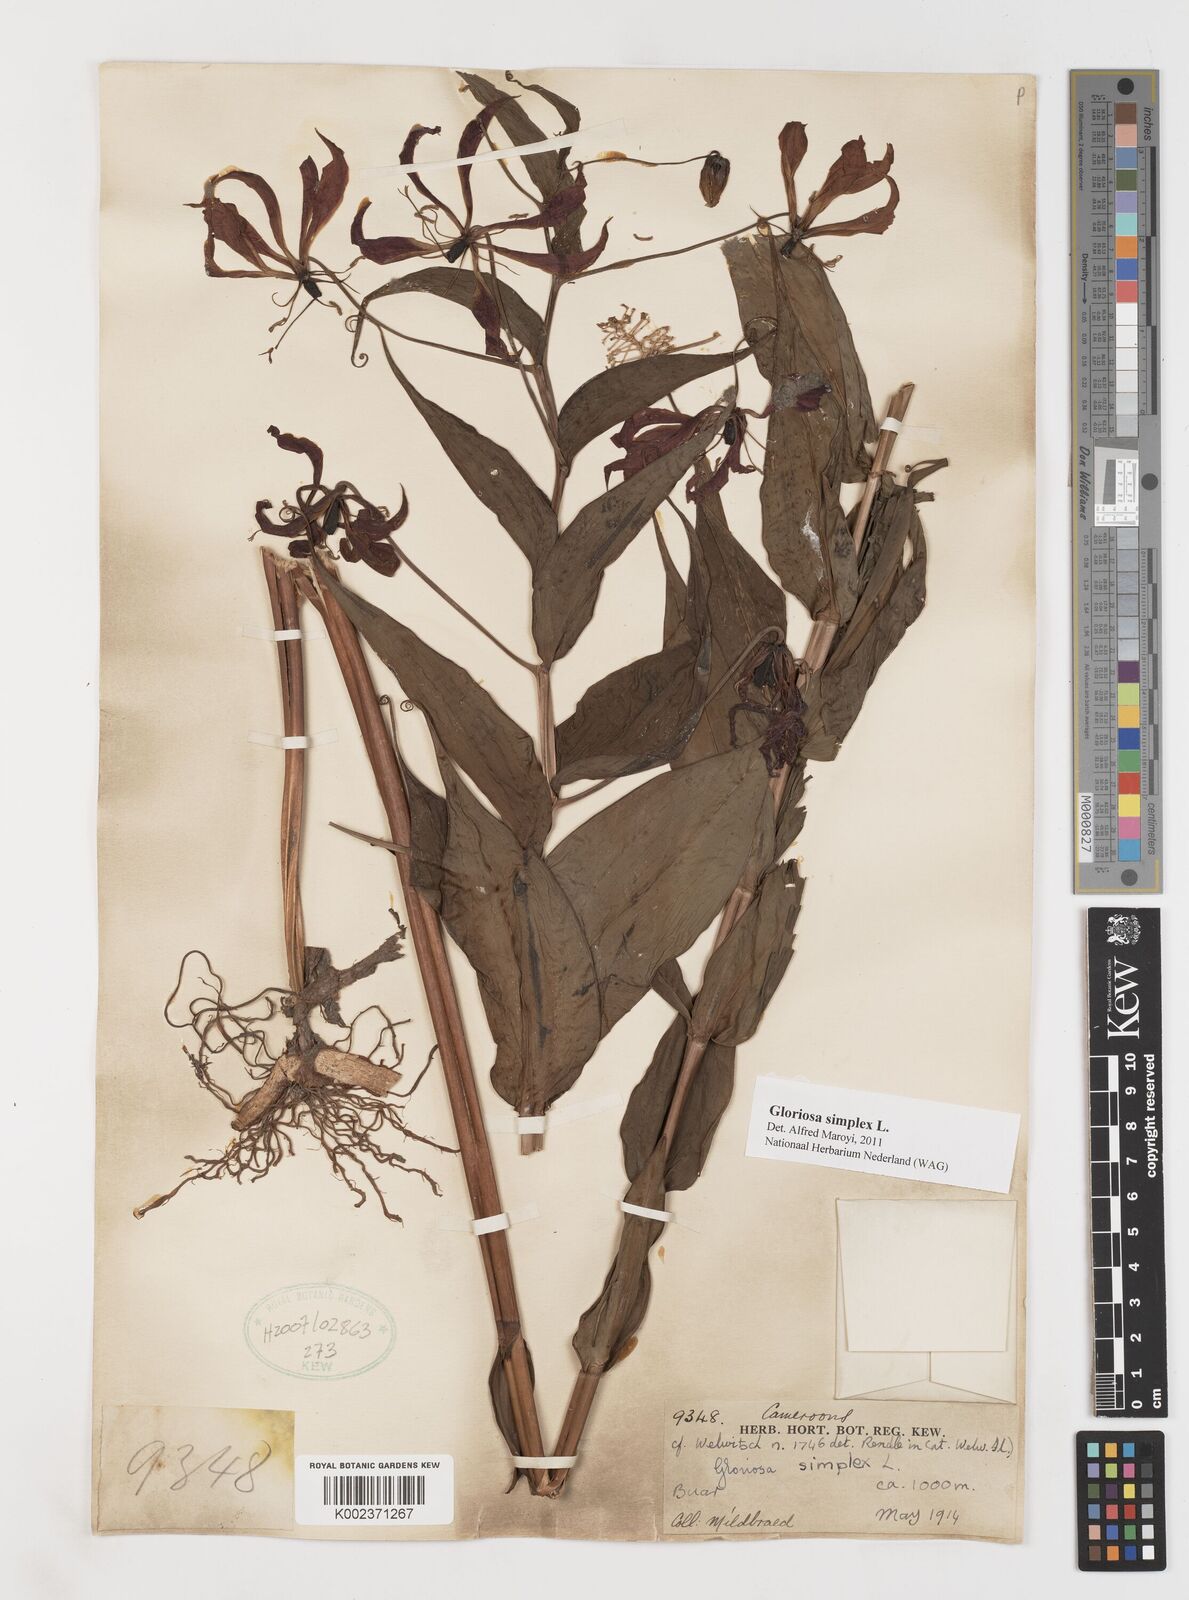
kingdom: Plantae
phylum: Tracheophyta
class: Liliopsida
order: Liliales
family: Colchicaceae
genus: Gloriosa
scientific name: Gloriosa simplex
